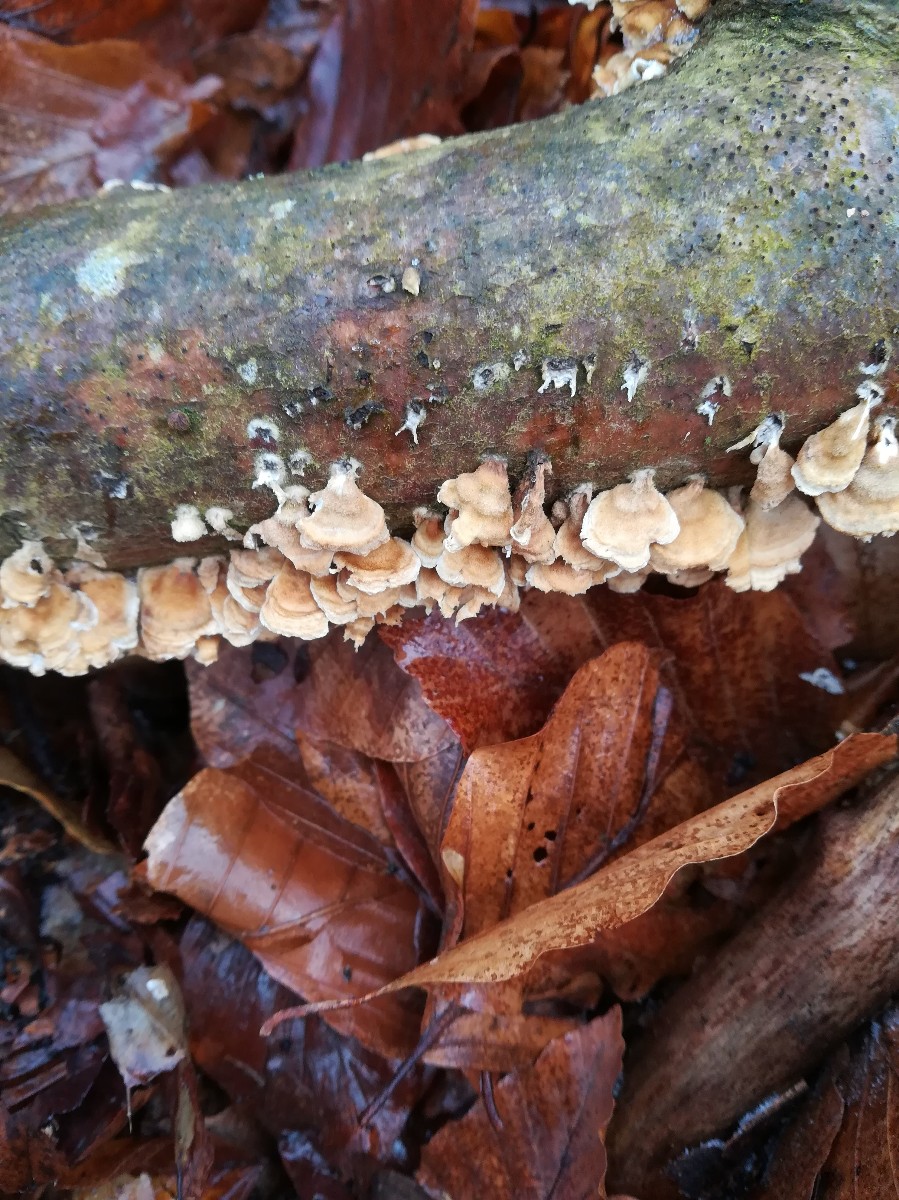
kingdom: Fungi
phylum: Basidiomycota
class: Agaricomycetes
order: Amylocorticiales
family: Amylocorticiaceae
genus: Plicaturopsis
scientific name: Plicaturopsis crispa
